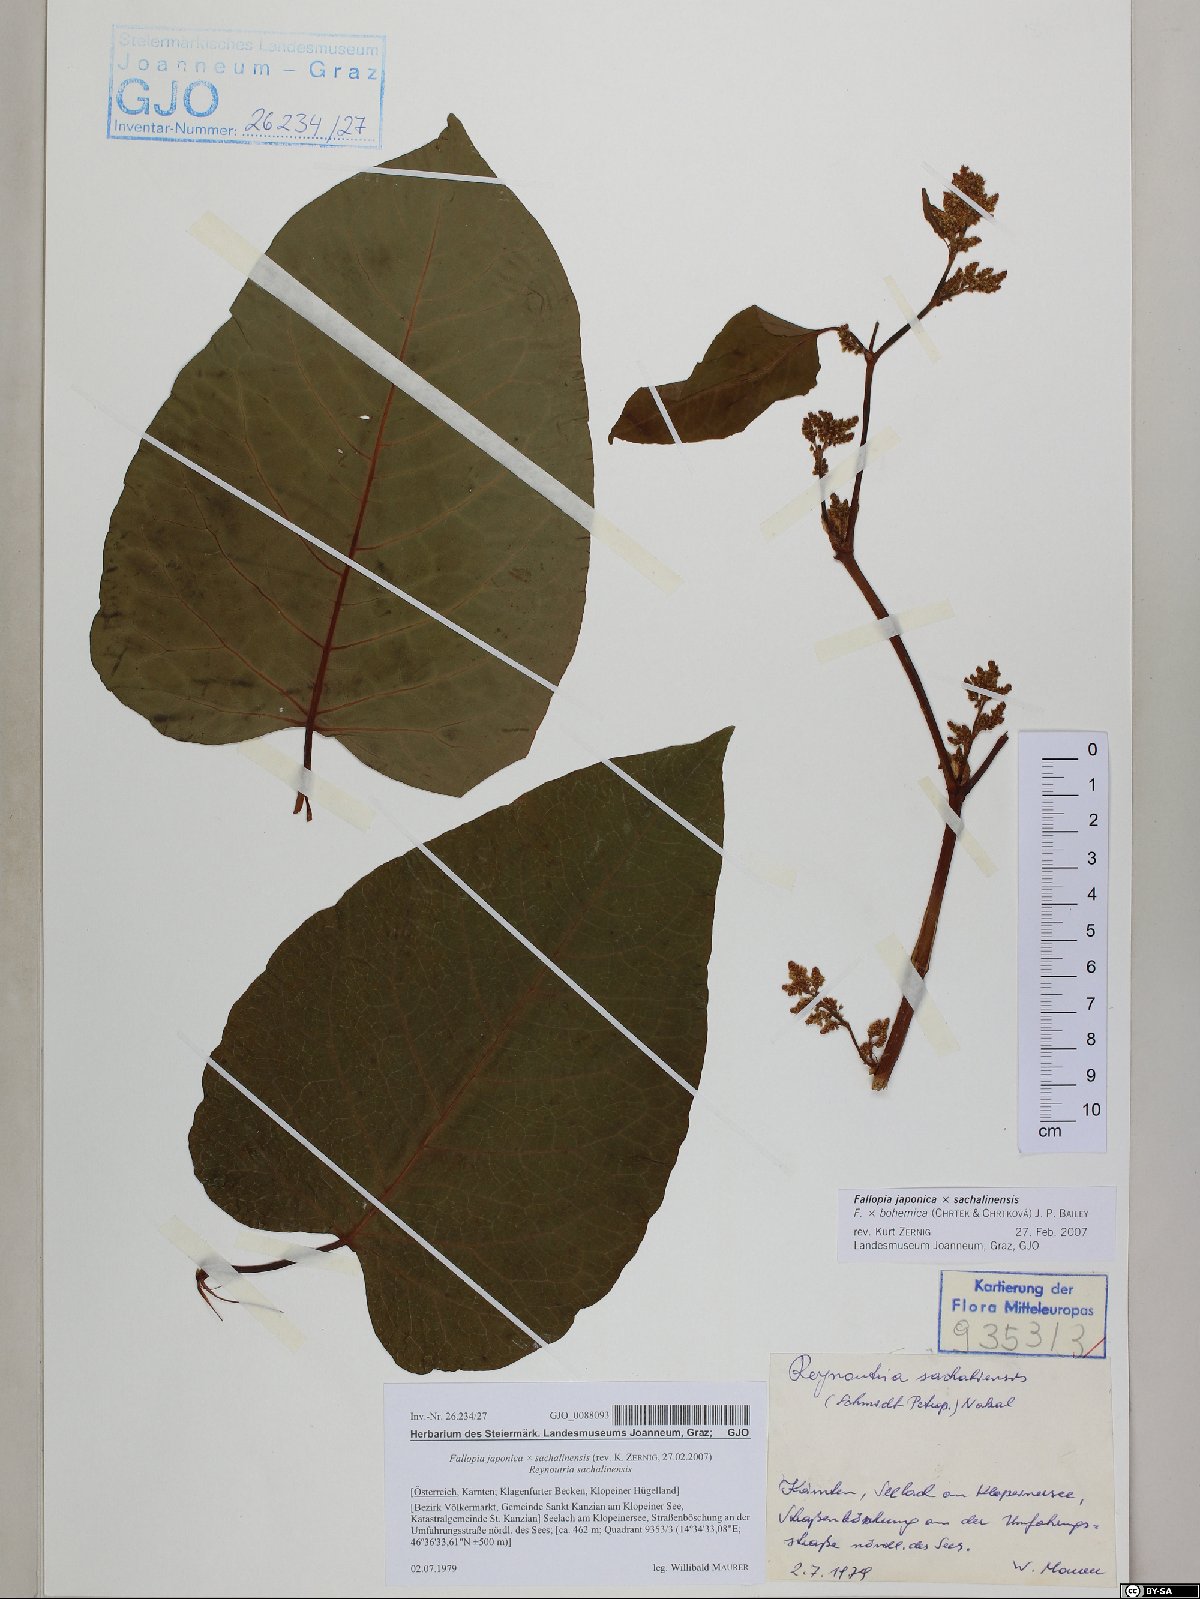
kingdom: Plantae
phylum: Tracheophyta
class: Magnoliopsida
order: Caryophyllales
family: Polygonaceae
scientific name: Polygonaceae
